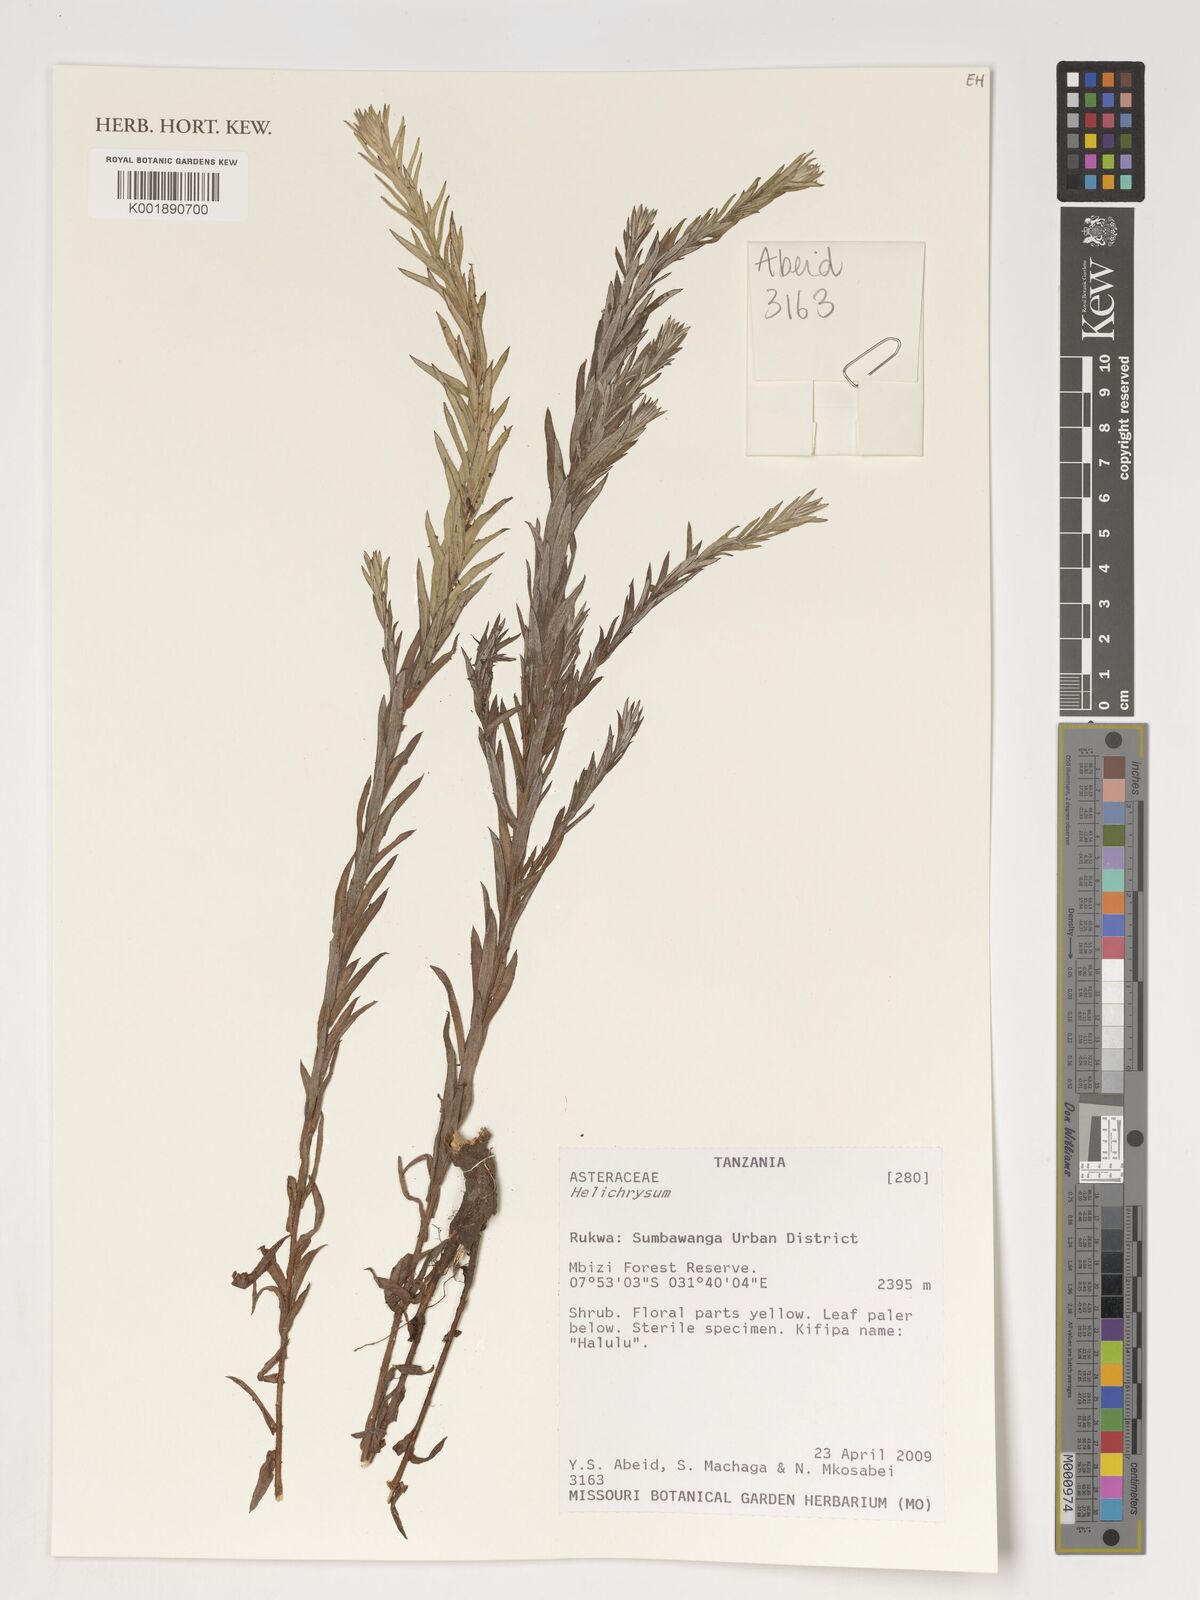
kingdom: Plantae
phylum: Tracheophyta
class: Magnoliopsida
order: Asterales
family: Asteraceae
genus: Helichrysum
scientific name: Helichrysum
